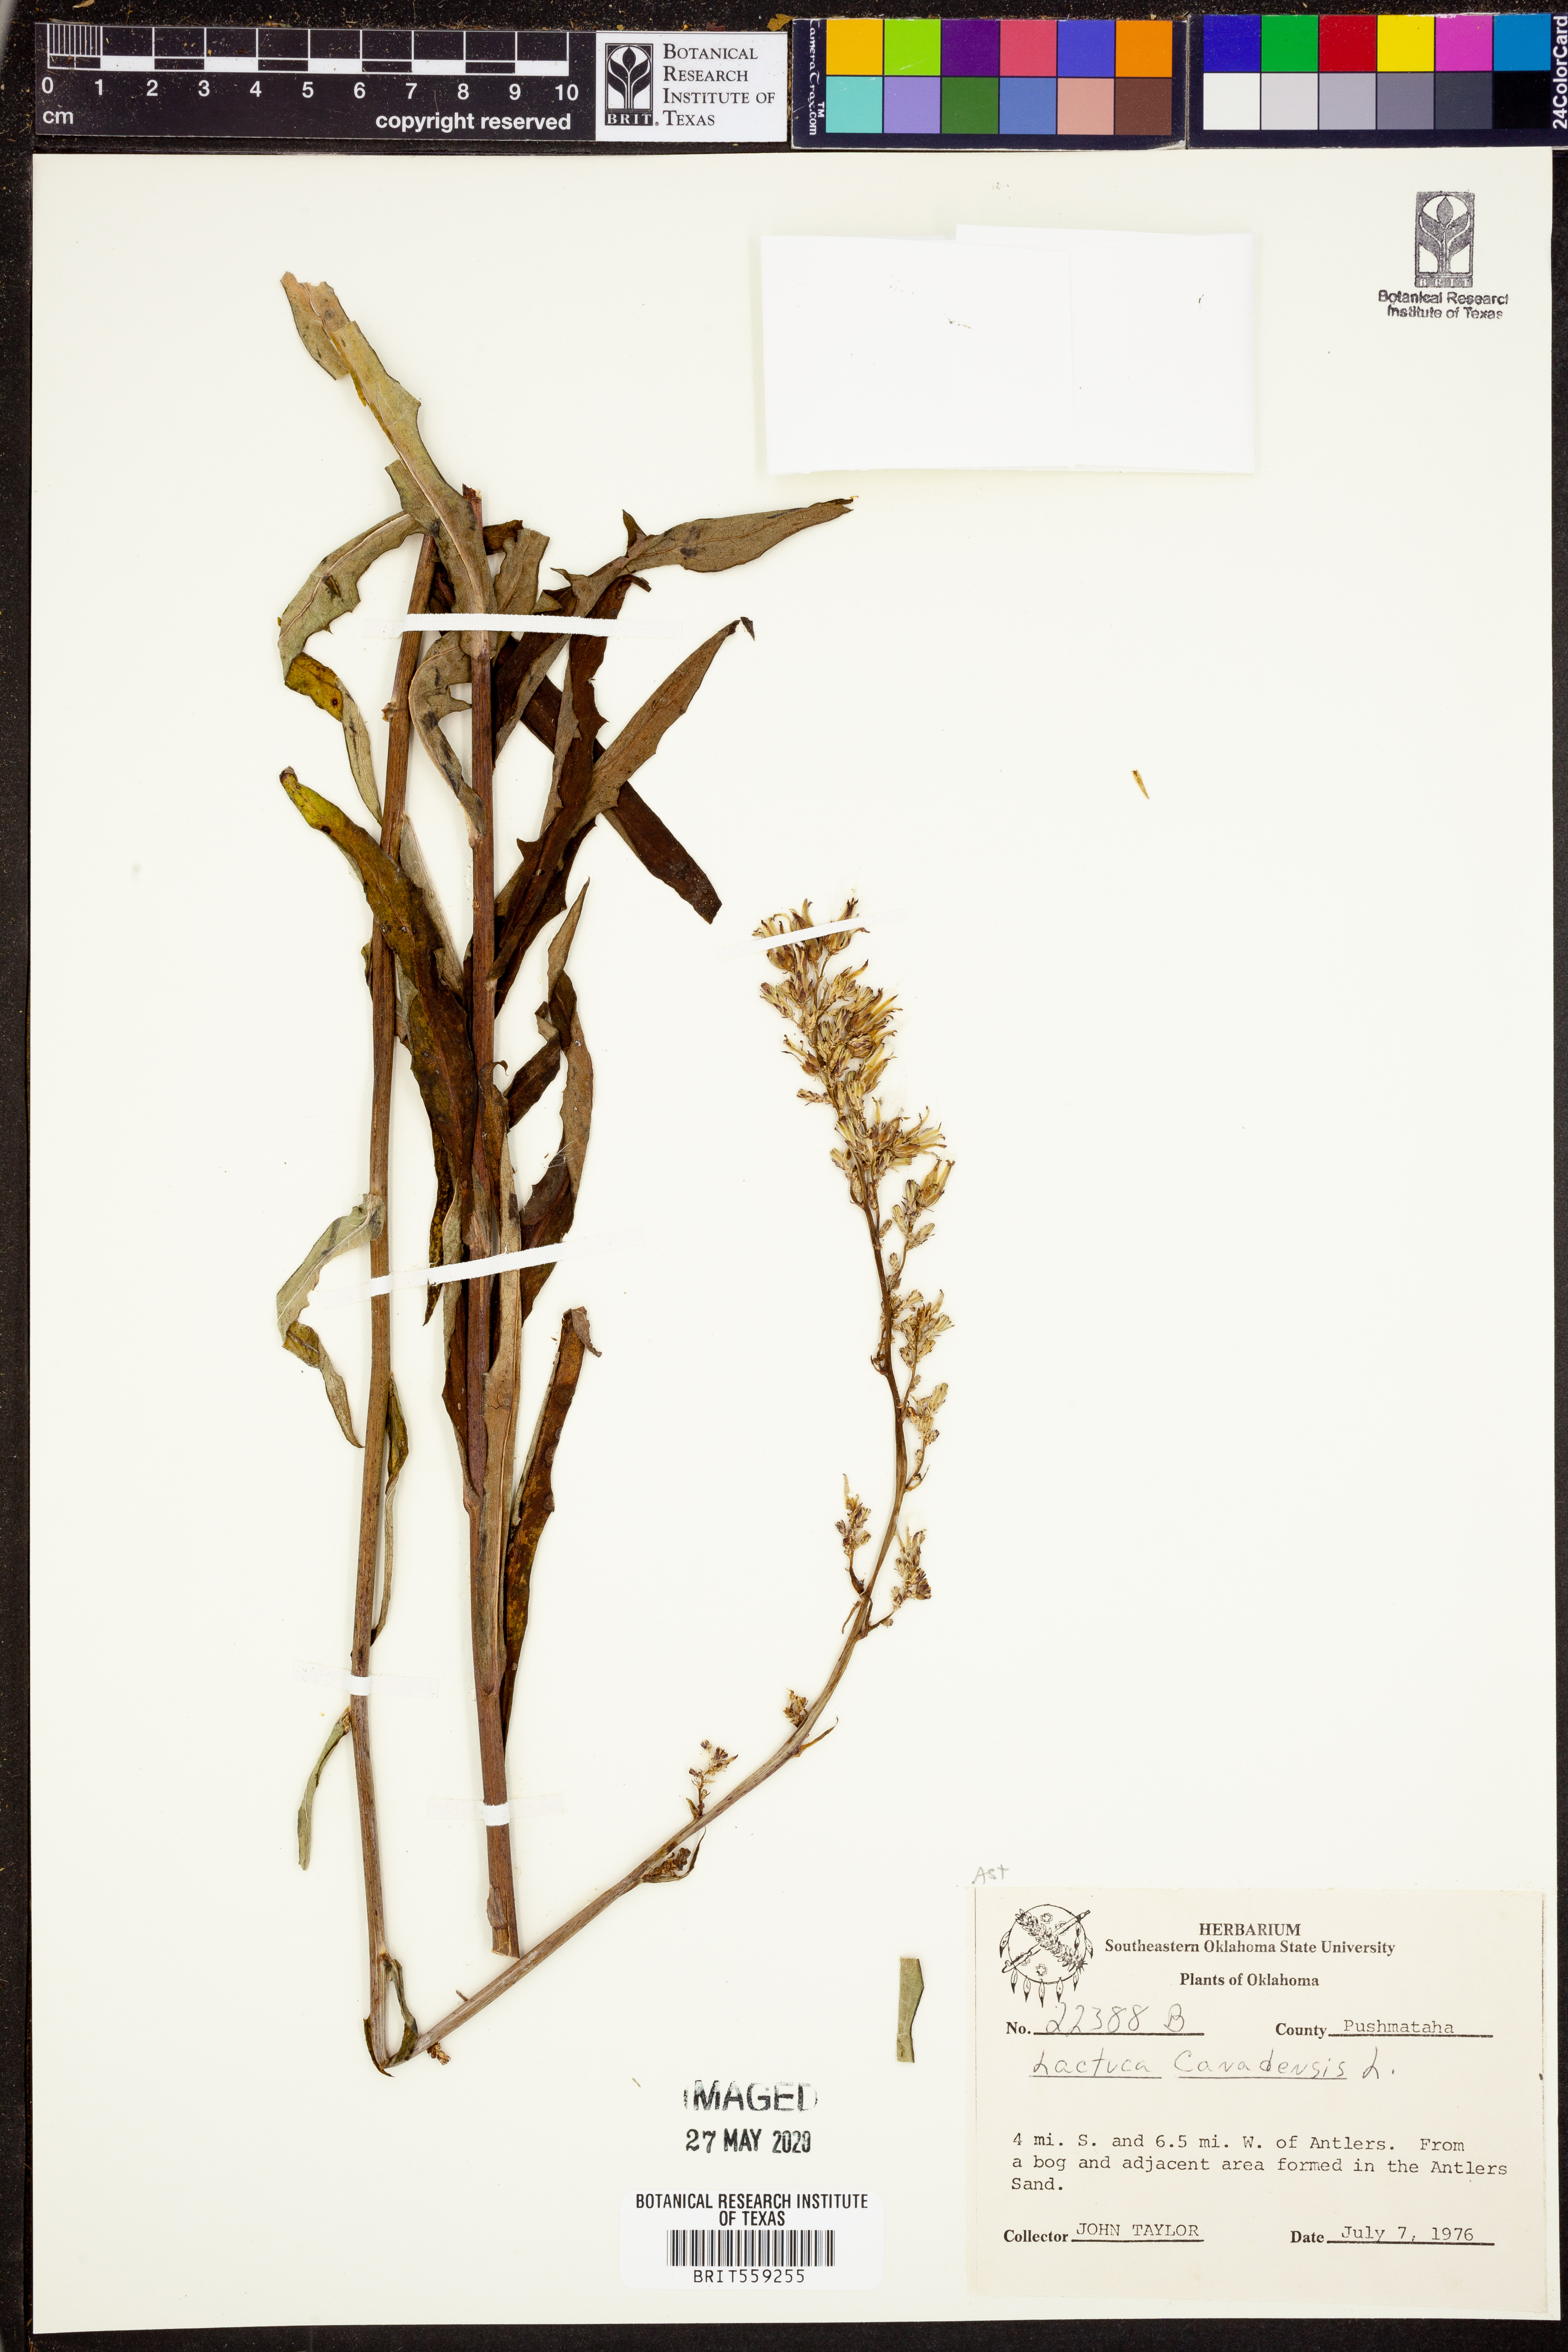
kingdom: Plantae
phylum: Tracheophyta
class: Magnoliopsida
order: Asterales
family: Asteraceae
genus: Lactuca
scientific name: Lactuca canadensis
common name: Canada lettuce
